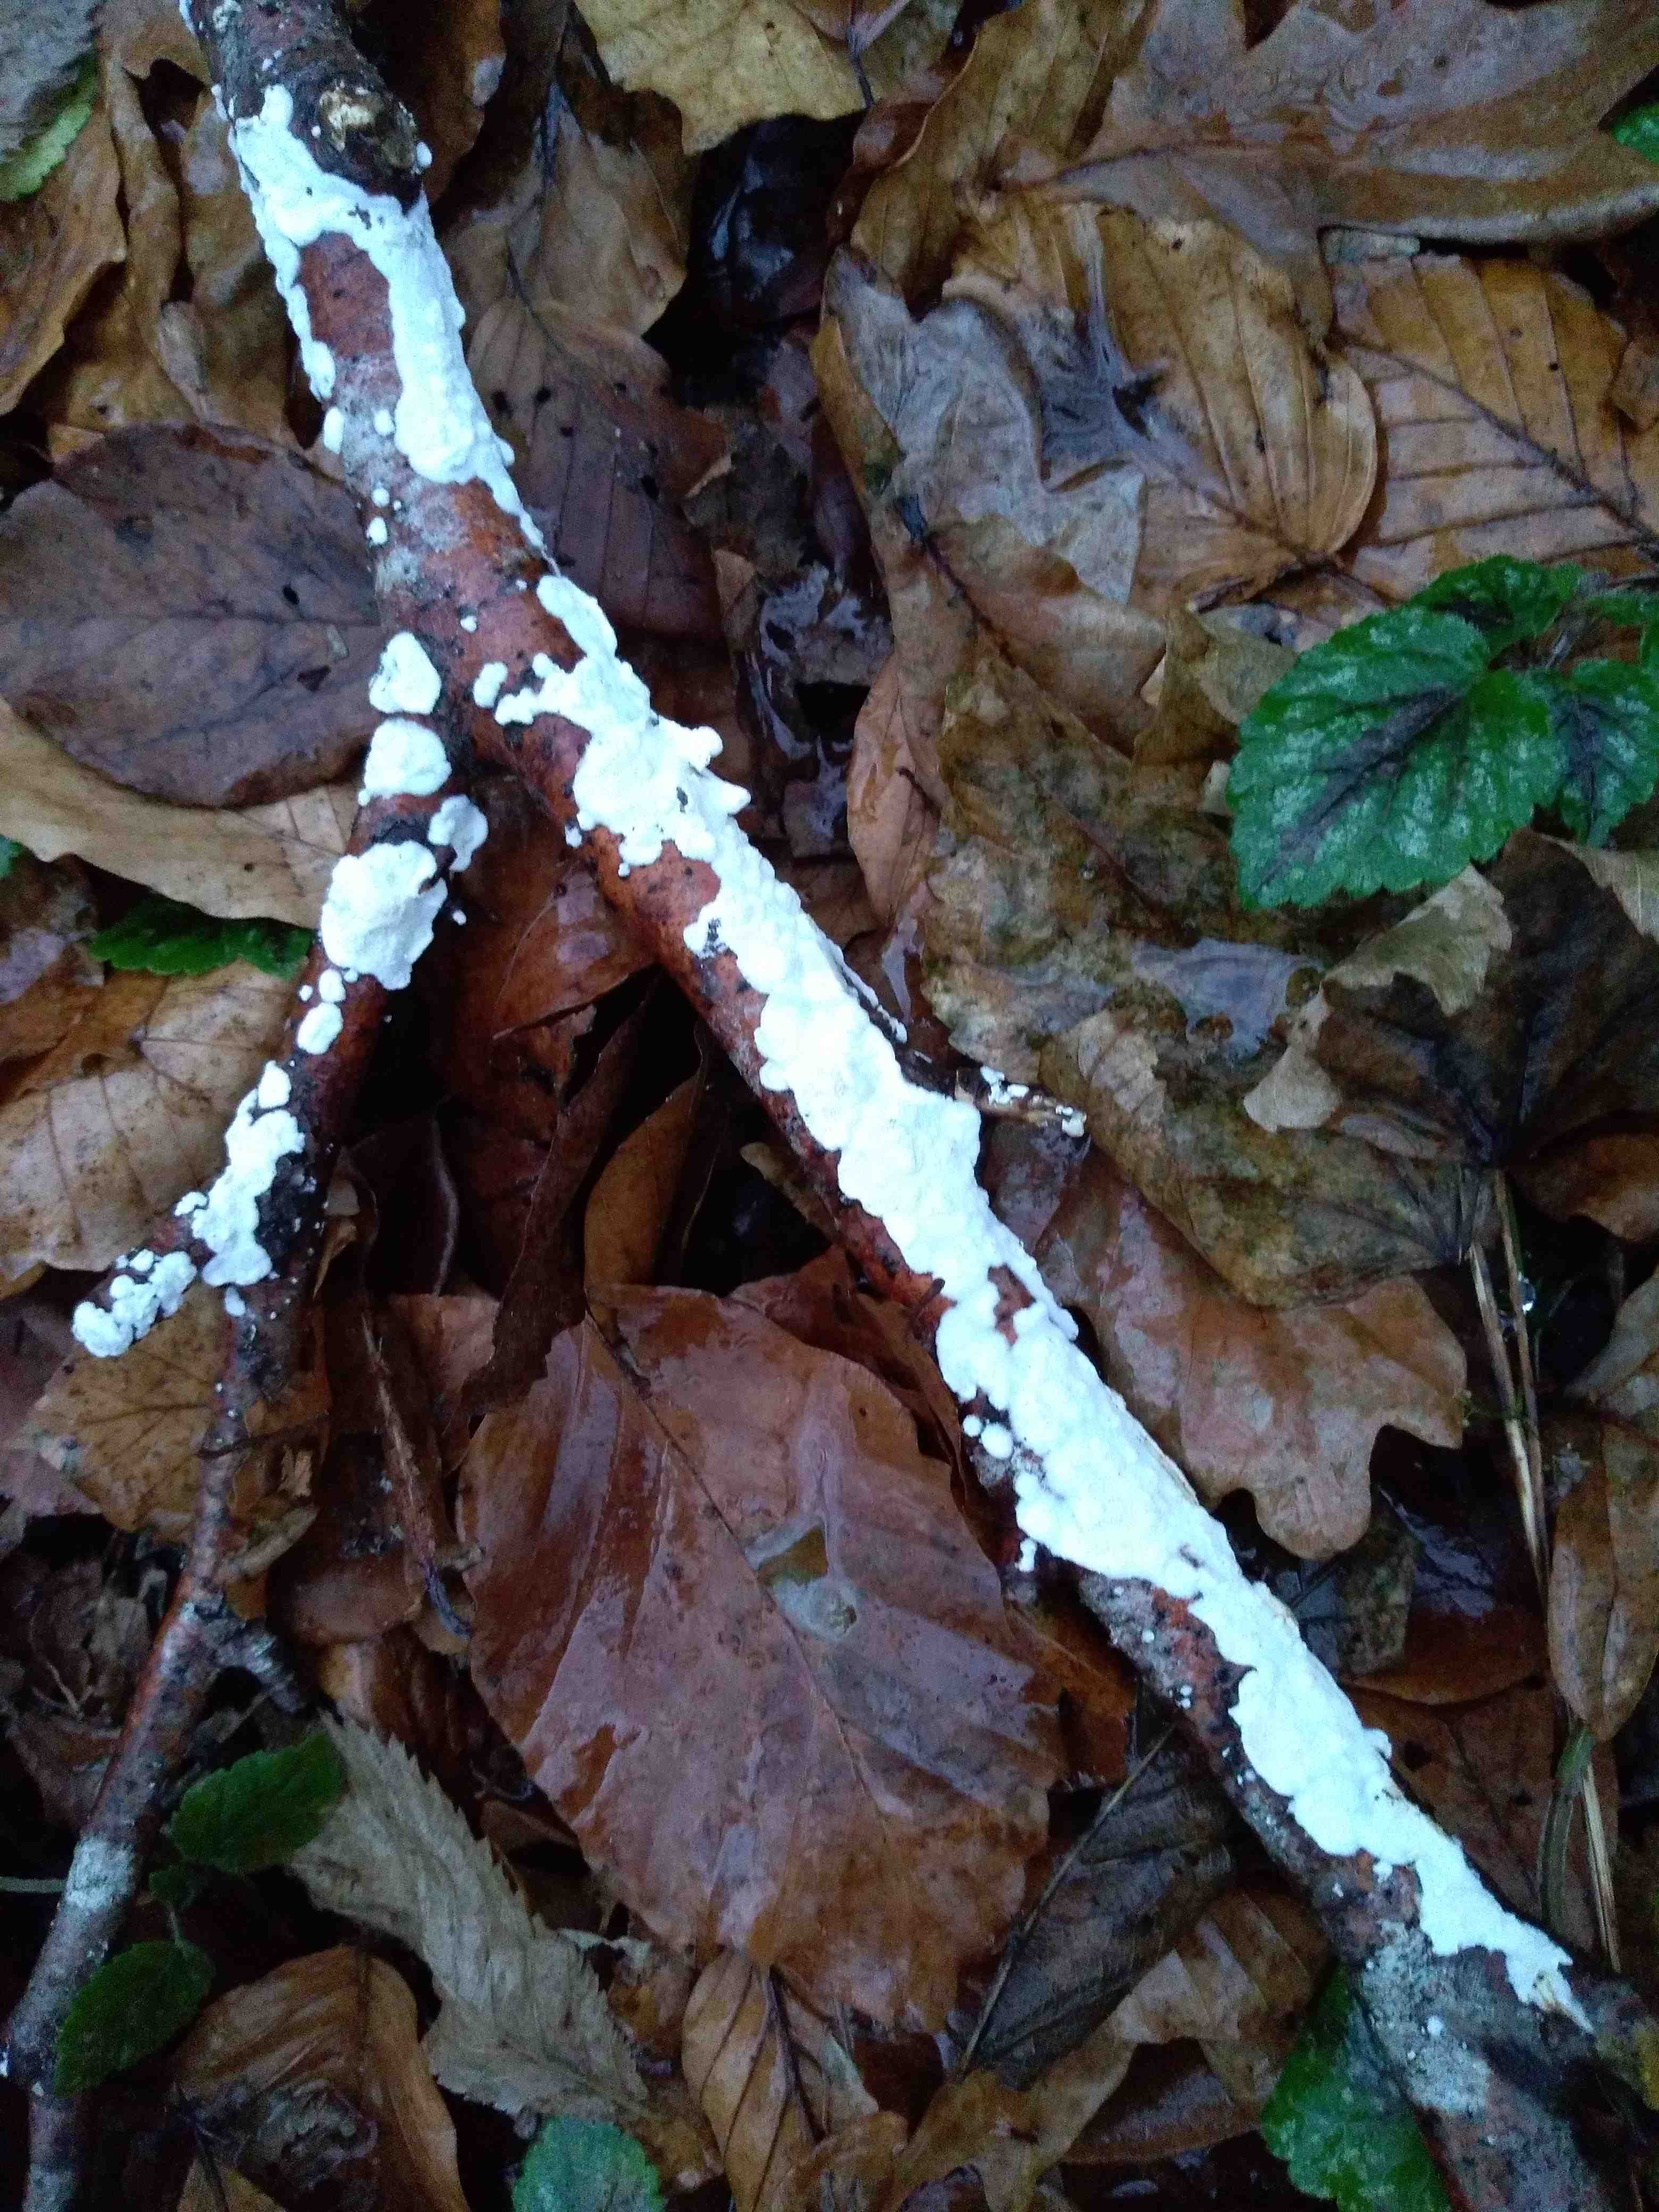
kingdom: Fungi
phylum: Basidiomycota
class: Agaricomycetes
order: Polyporales
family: Irpicaceae
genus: Byssomerulius
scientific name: Byssomerulius corium
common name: læder-åresvamp
